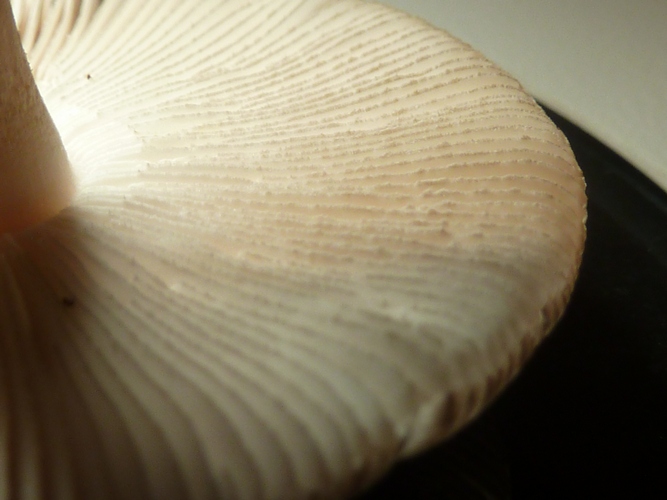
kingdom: Fungi
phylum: Basidiomycota
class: Agaricomycetes
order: Agaricales
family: Amanitaceae
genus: Amanita
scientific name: Amanita coryli
